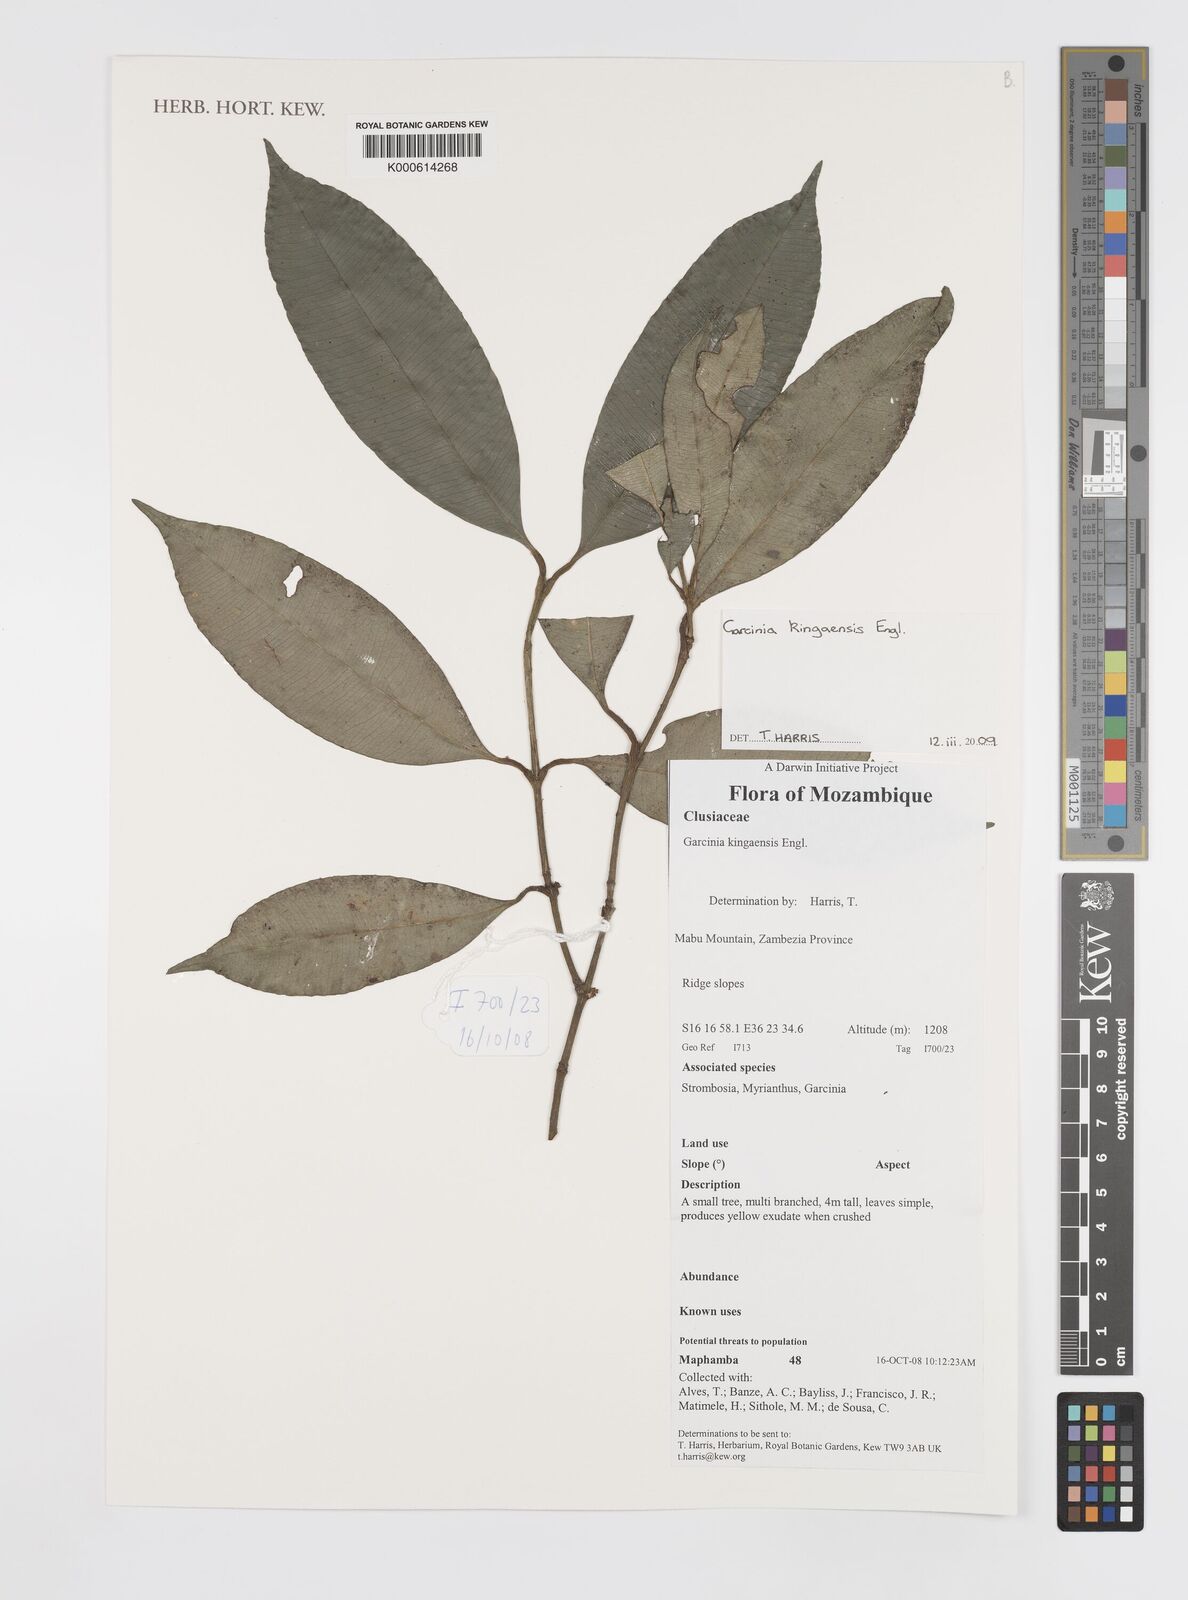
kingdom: Plantae
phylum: Tracheophyta
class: Magnoliopsida
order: Malpighiales
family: Clusiaceae
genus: Garcinia
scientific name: Garcinia kingaensis
